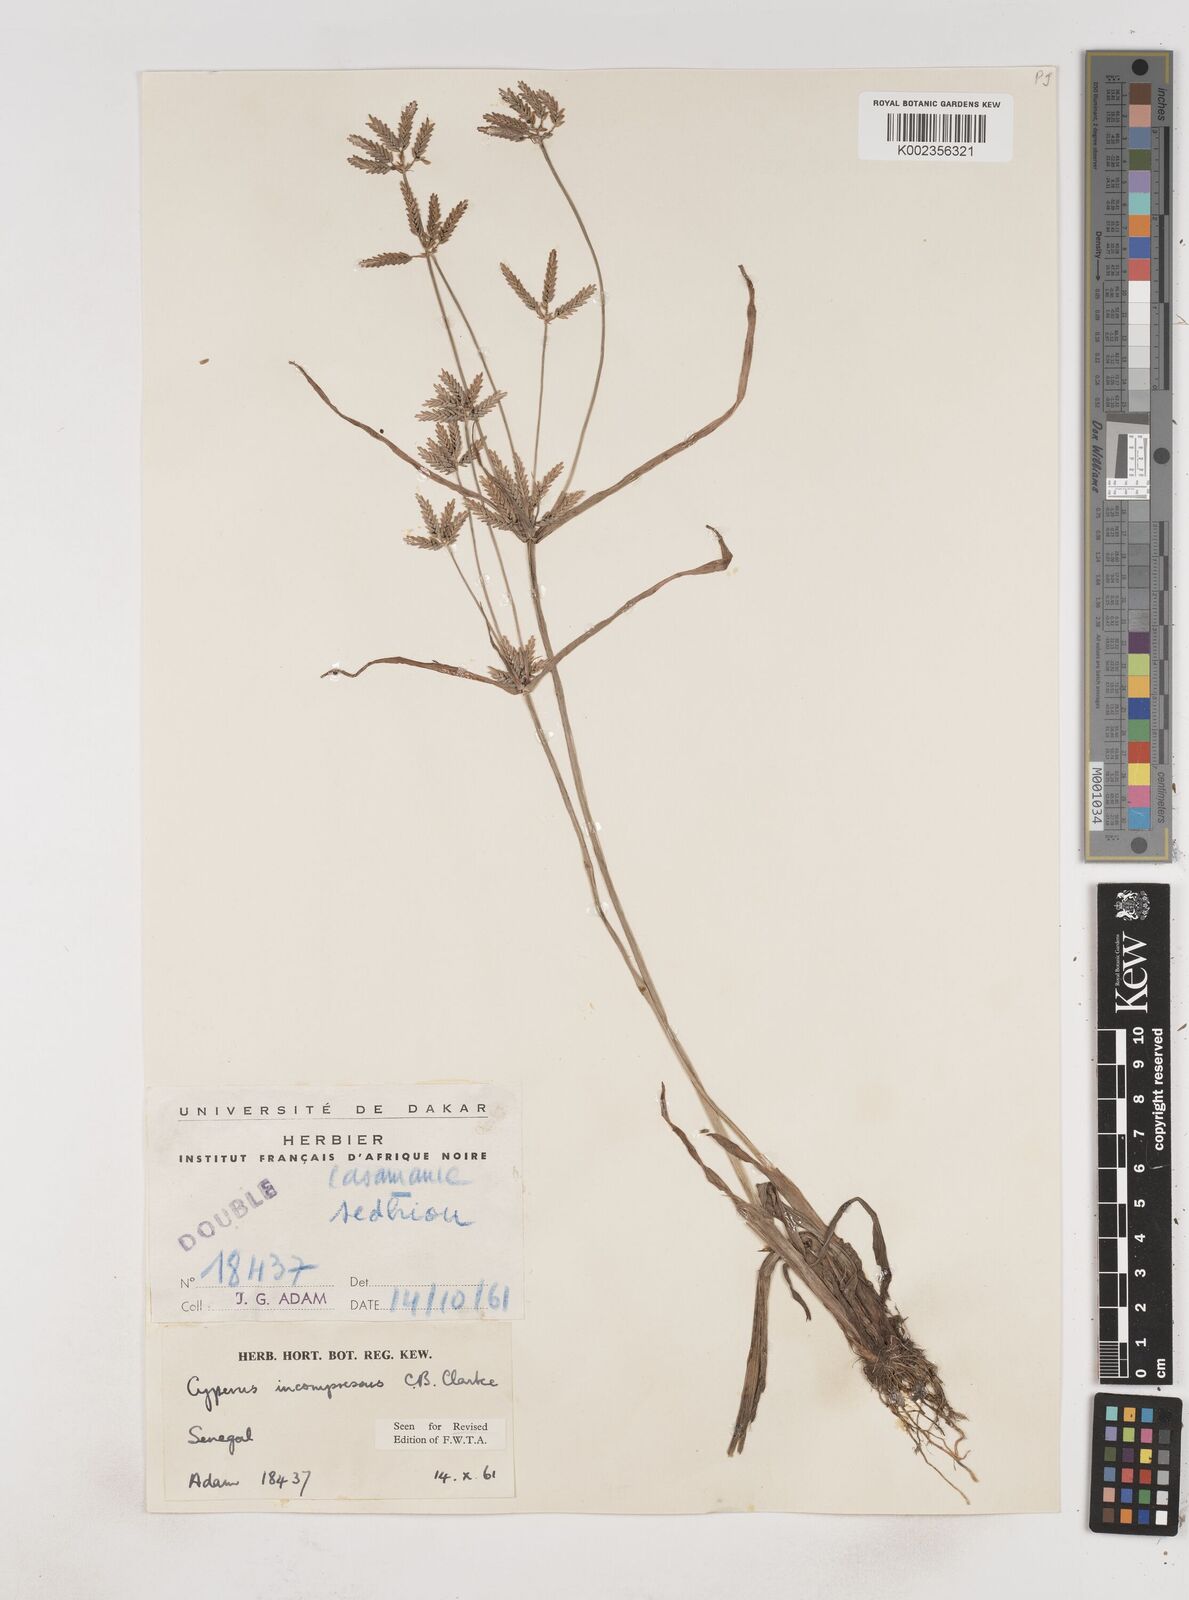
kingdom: Plantae
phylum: Tracheophyta
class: Liliopsida
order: Poales
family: Cyperaceae
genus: Cyperus
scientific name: Cyperus incompressus
